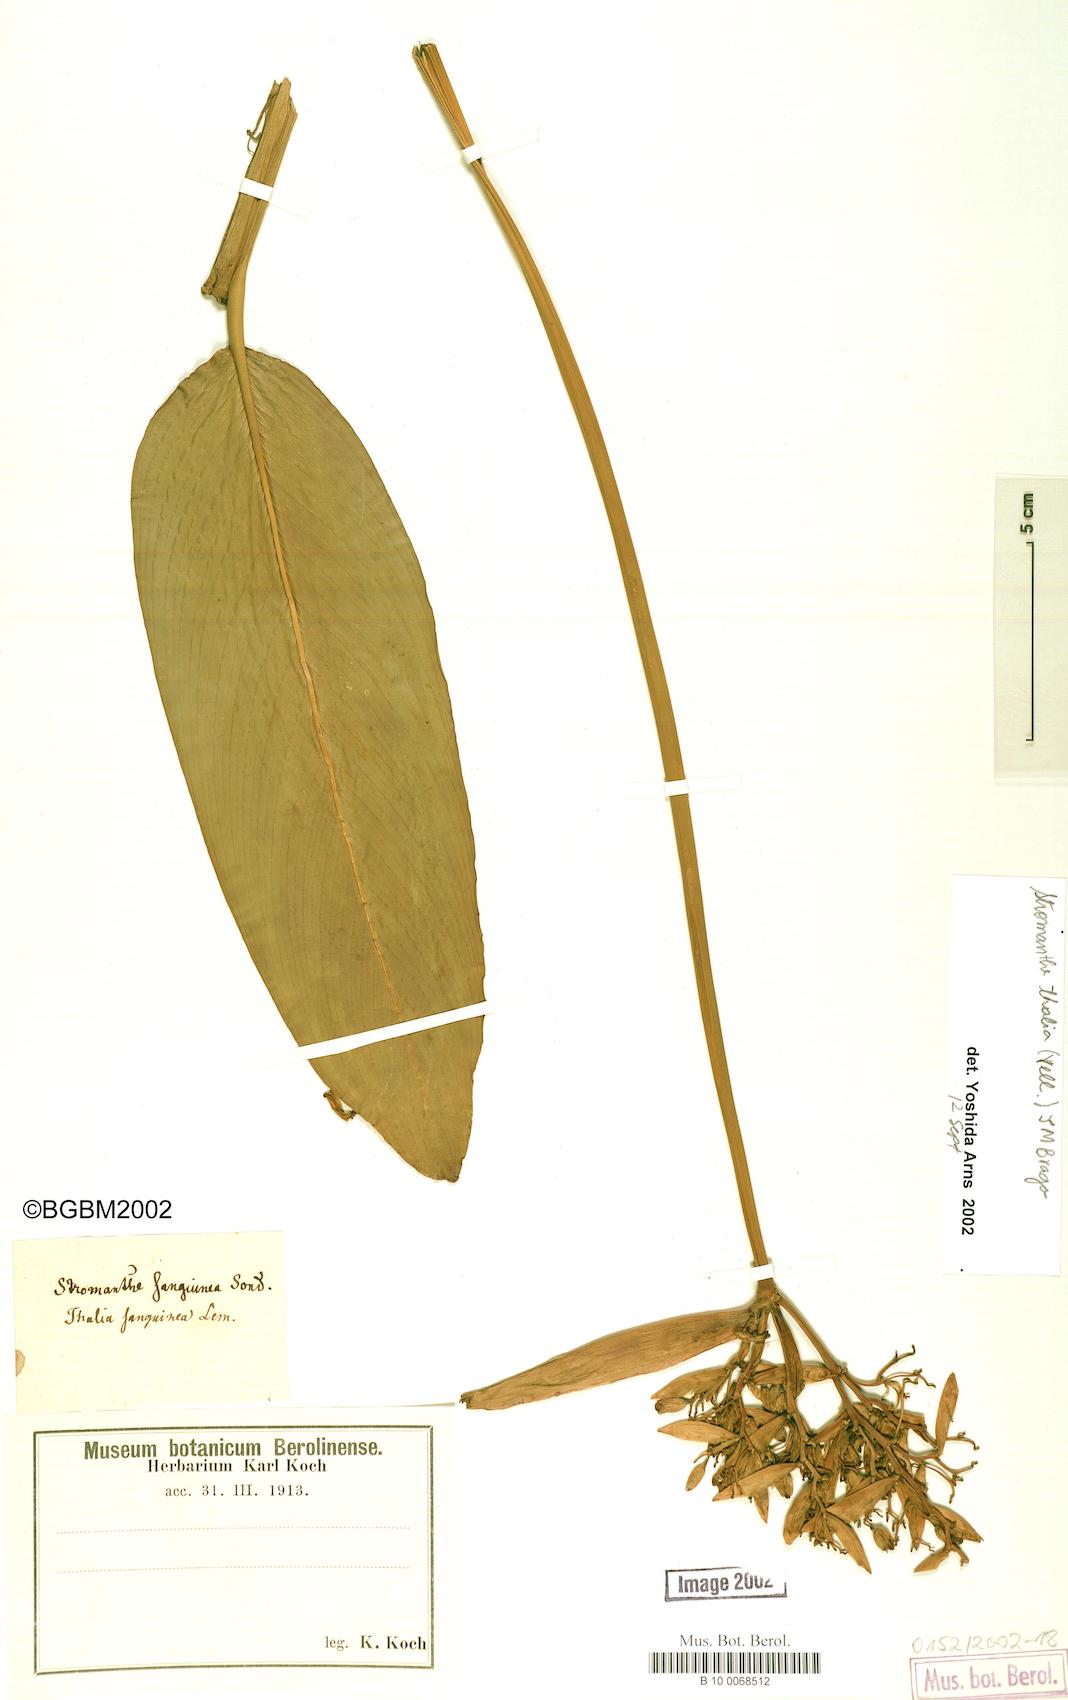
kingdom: Plantae
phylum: Tracheophyta
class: Liliopsida
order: Zingiberales
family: Marantaceae
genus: Stromanthe
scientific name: Stromanthe thalia
